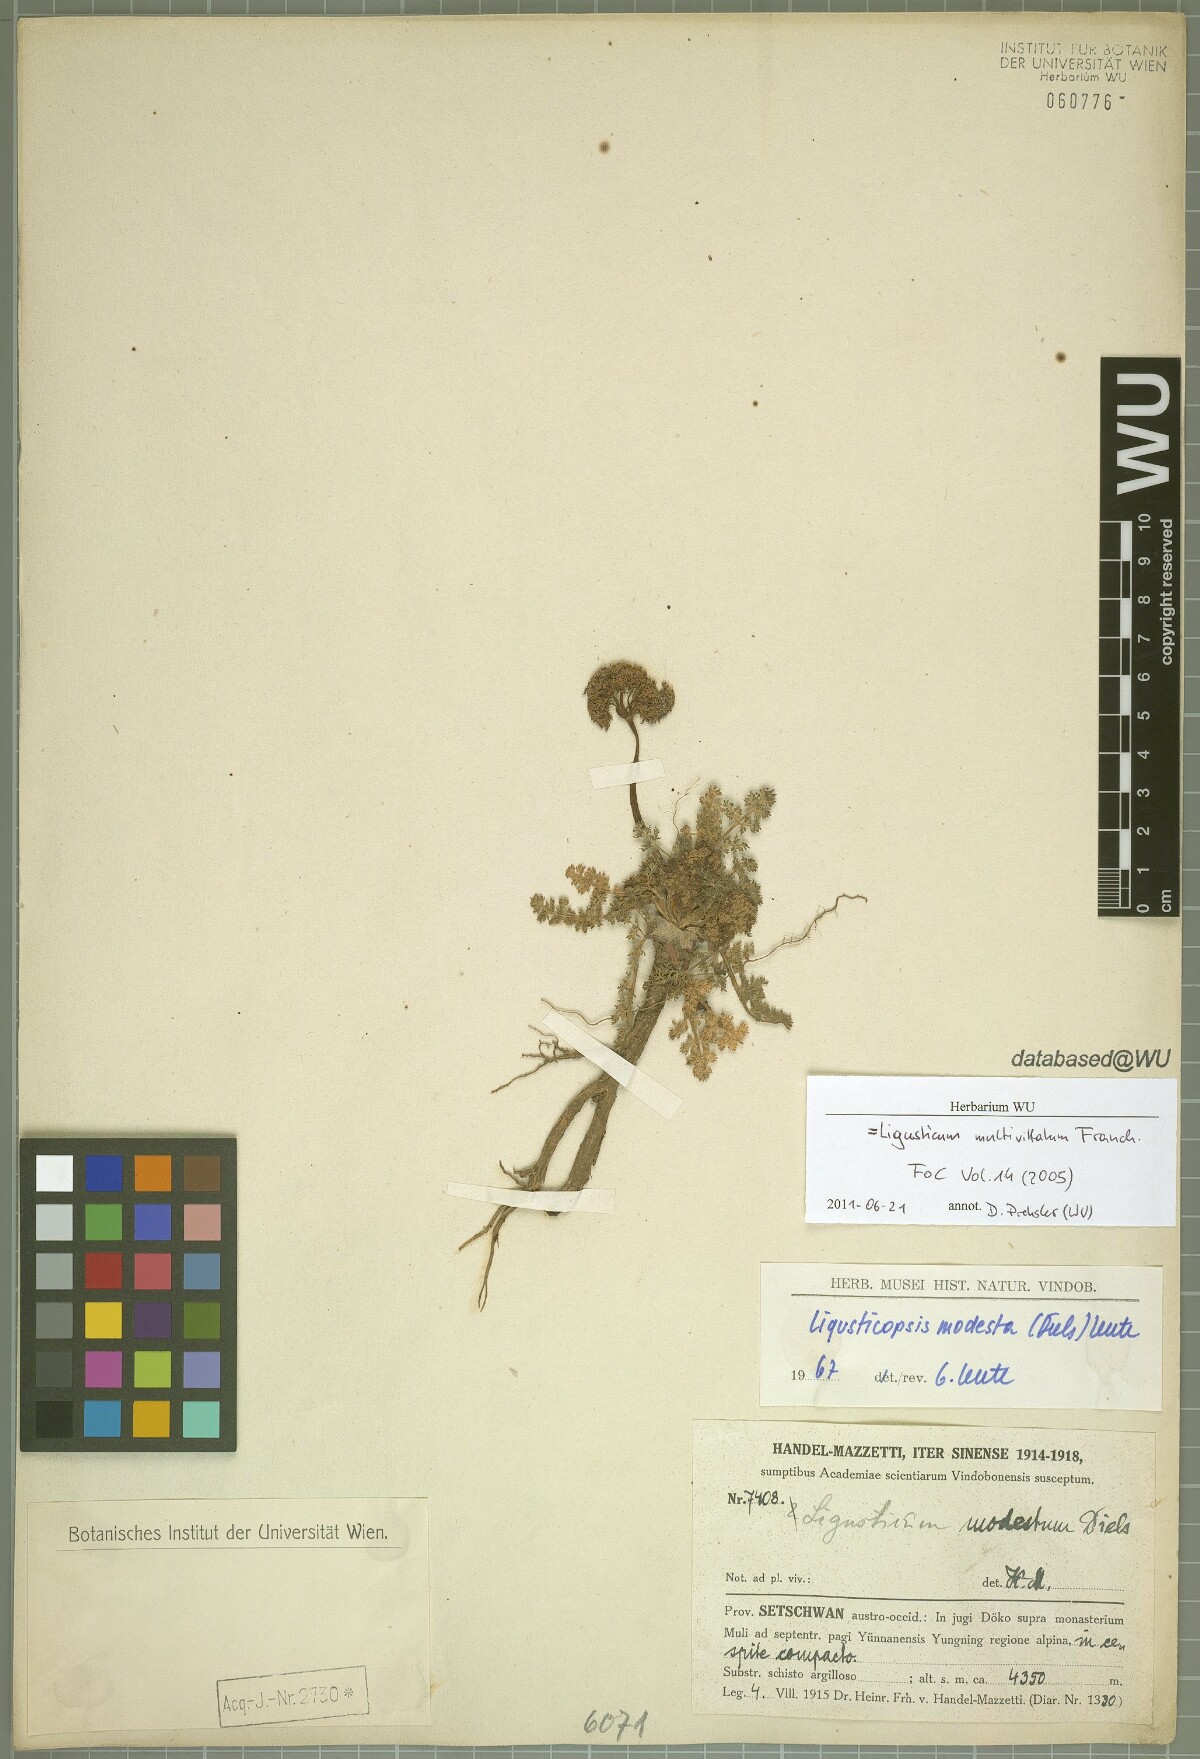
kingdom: Plantae
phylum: Tracheophyta
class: Magnoliopsida
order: Apiales
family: Apiaceae
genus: Ligusticopsis
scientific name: Ligusticopsis multivittata
